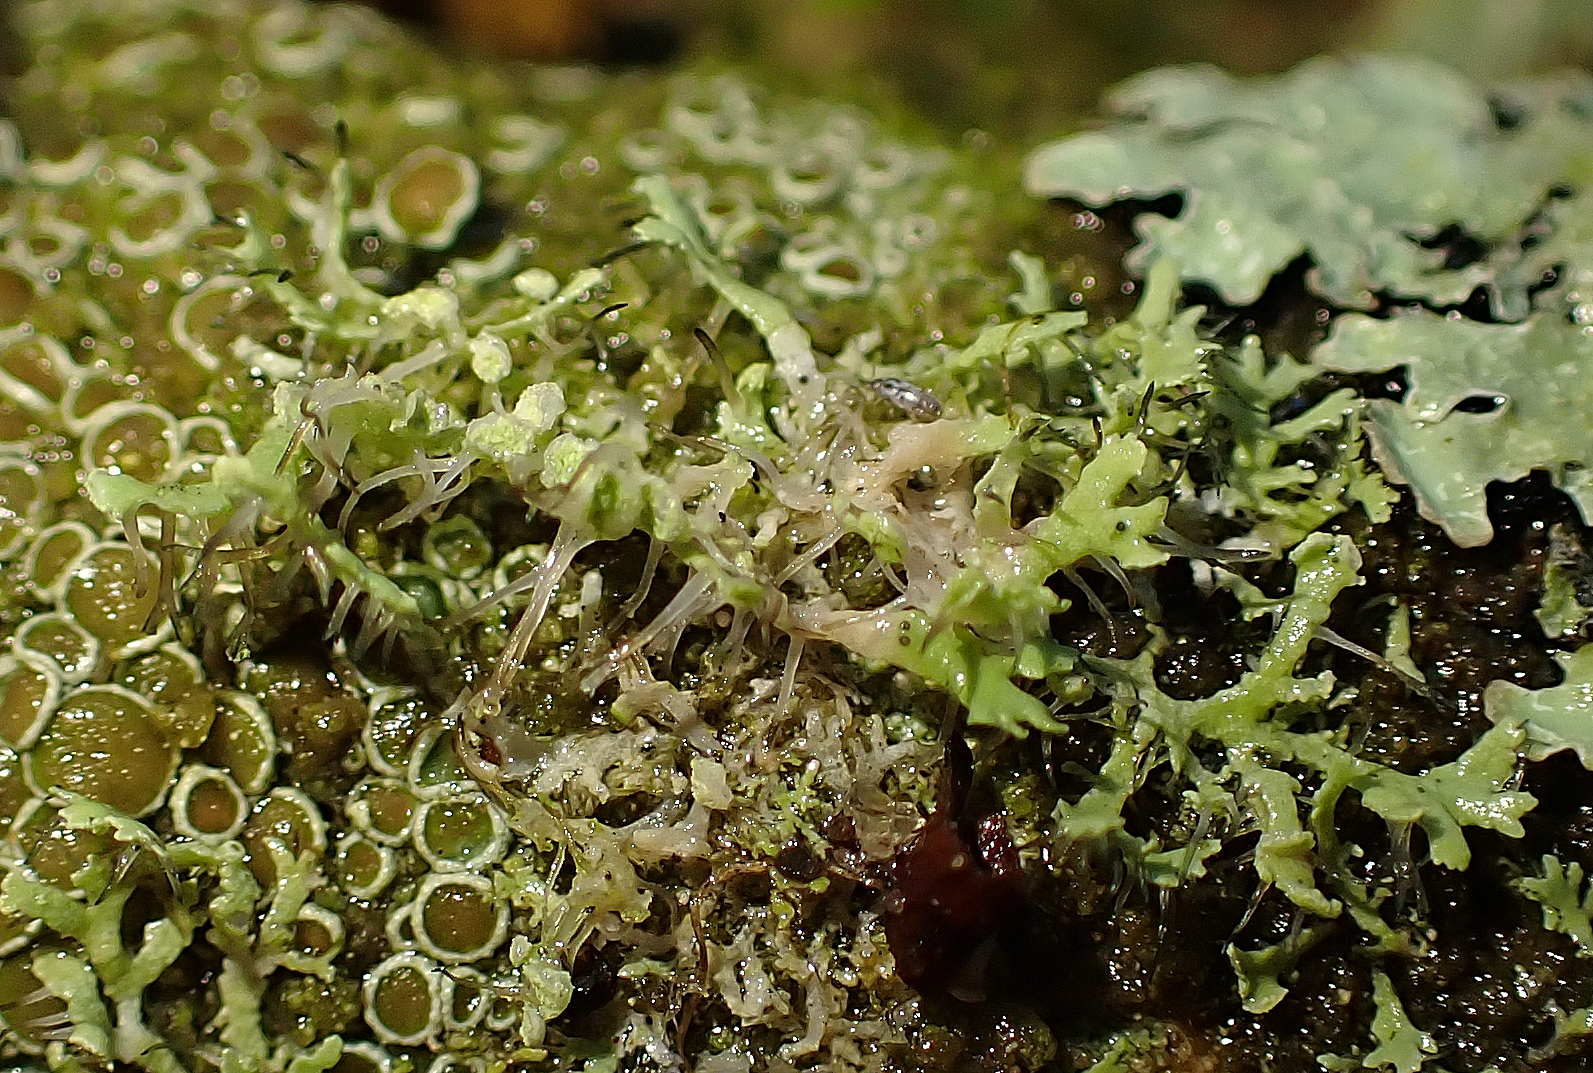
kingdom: Fungi
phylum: Ascomycota
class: Lecanoromycetes
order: Caliciales
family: Physciaceae
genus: Physcia
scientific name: Physcia tenella
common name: spæd rosetlav
